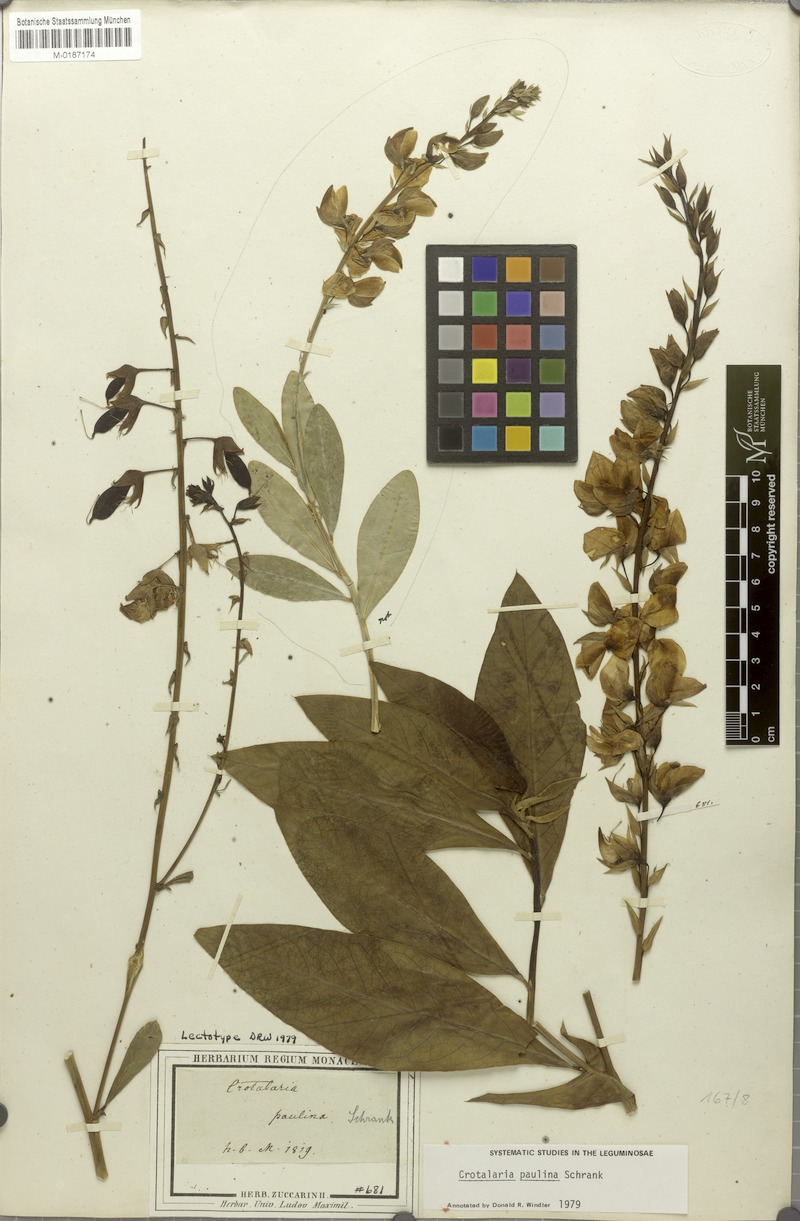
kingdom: Plantae
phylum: Tracheophyta
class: Magnoliopsida
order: Fabales
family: Fabaceae
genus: Crotalaria
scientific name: Crotalaria paulina
